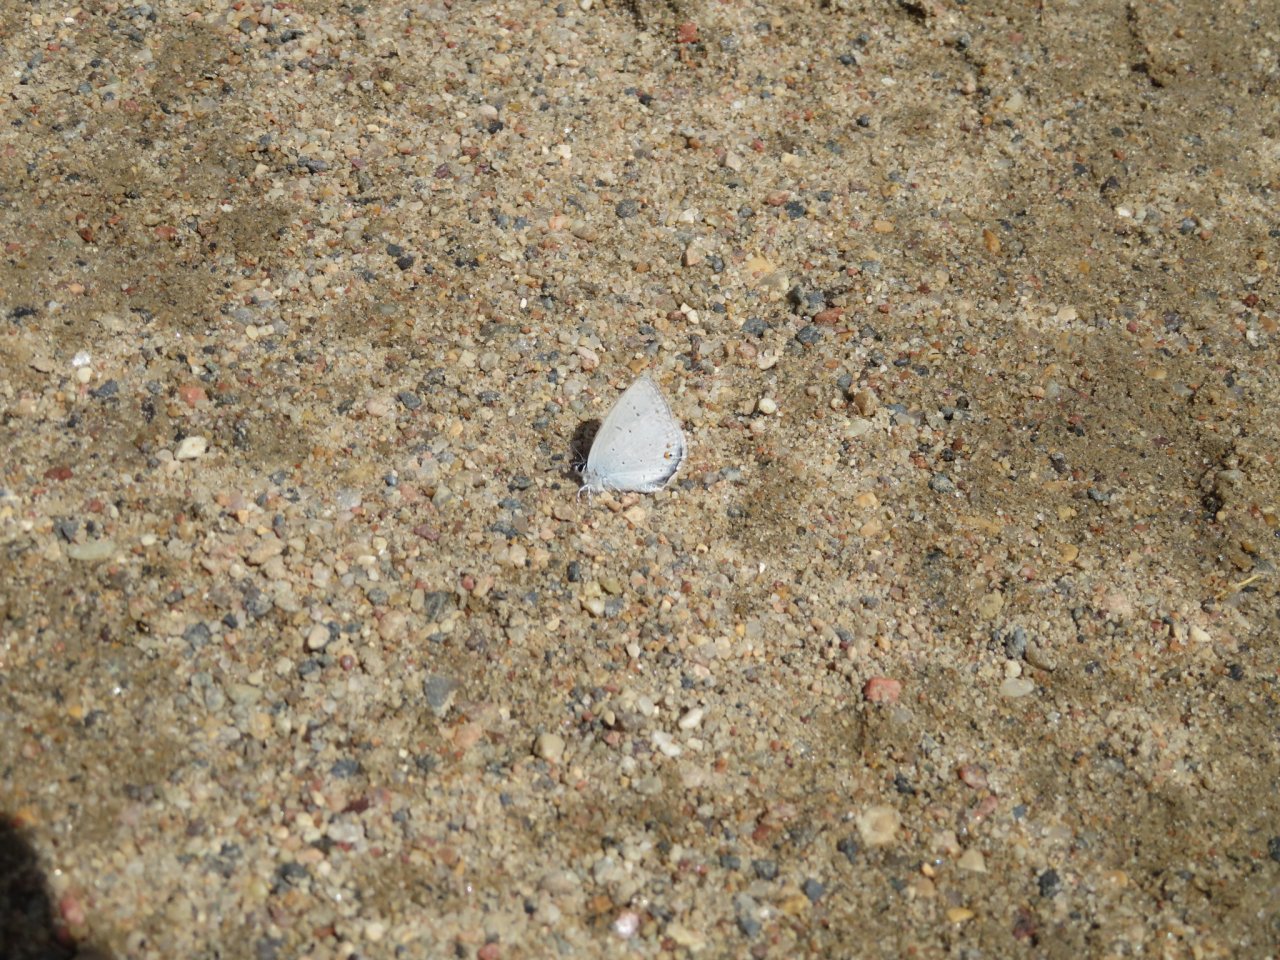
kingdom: Animalia
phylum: Arthropoda
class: Insecta
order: Lepidoptera
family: Lycaenidae
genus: Elkalyce
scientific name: Elkalyce amyntula
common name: Western Tailed-Blue
